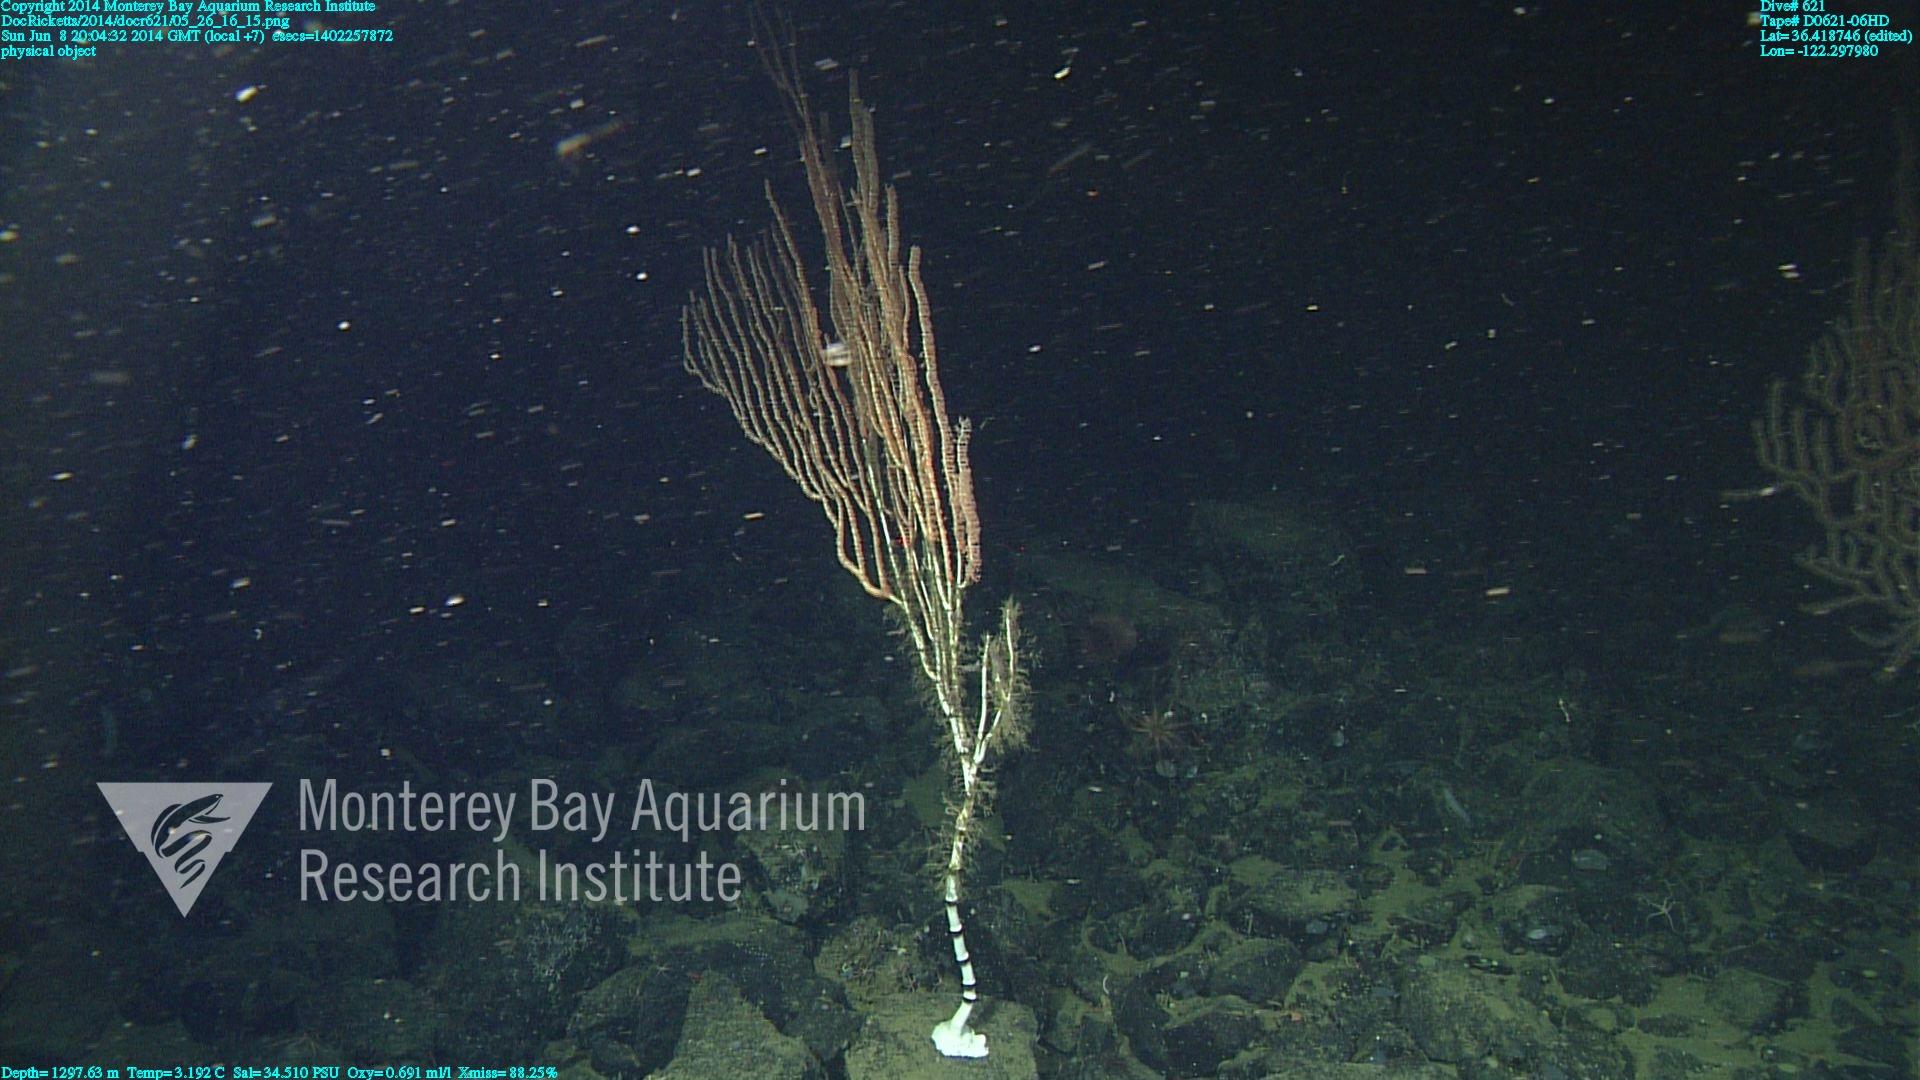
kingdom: Animalia
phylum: Cnidaria
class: Anthozoa
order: Scleralcyonacea
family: Keratoisididae
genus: Isidella
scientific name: Isidella
